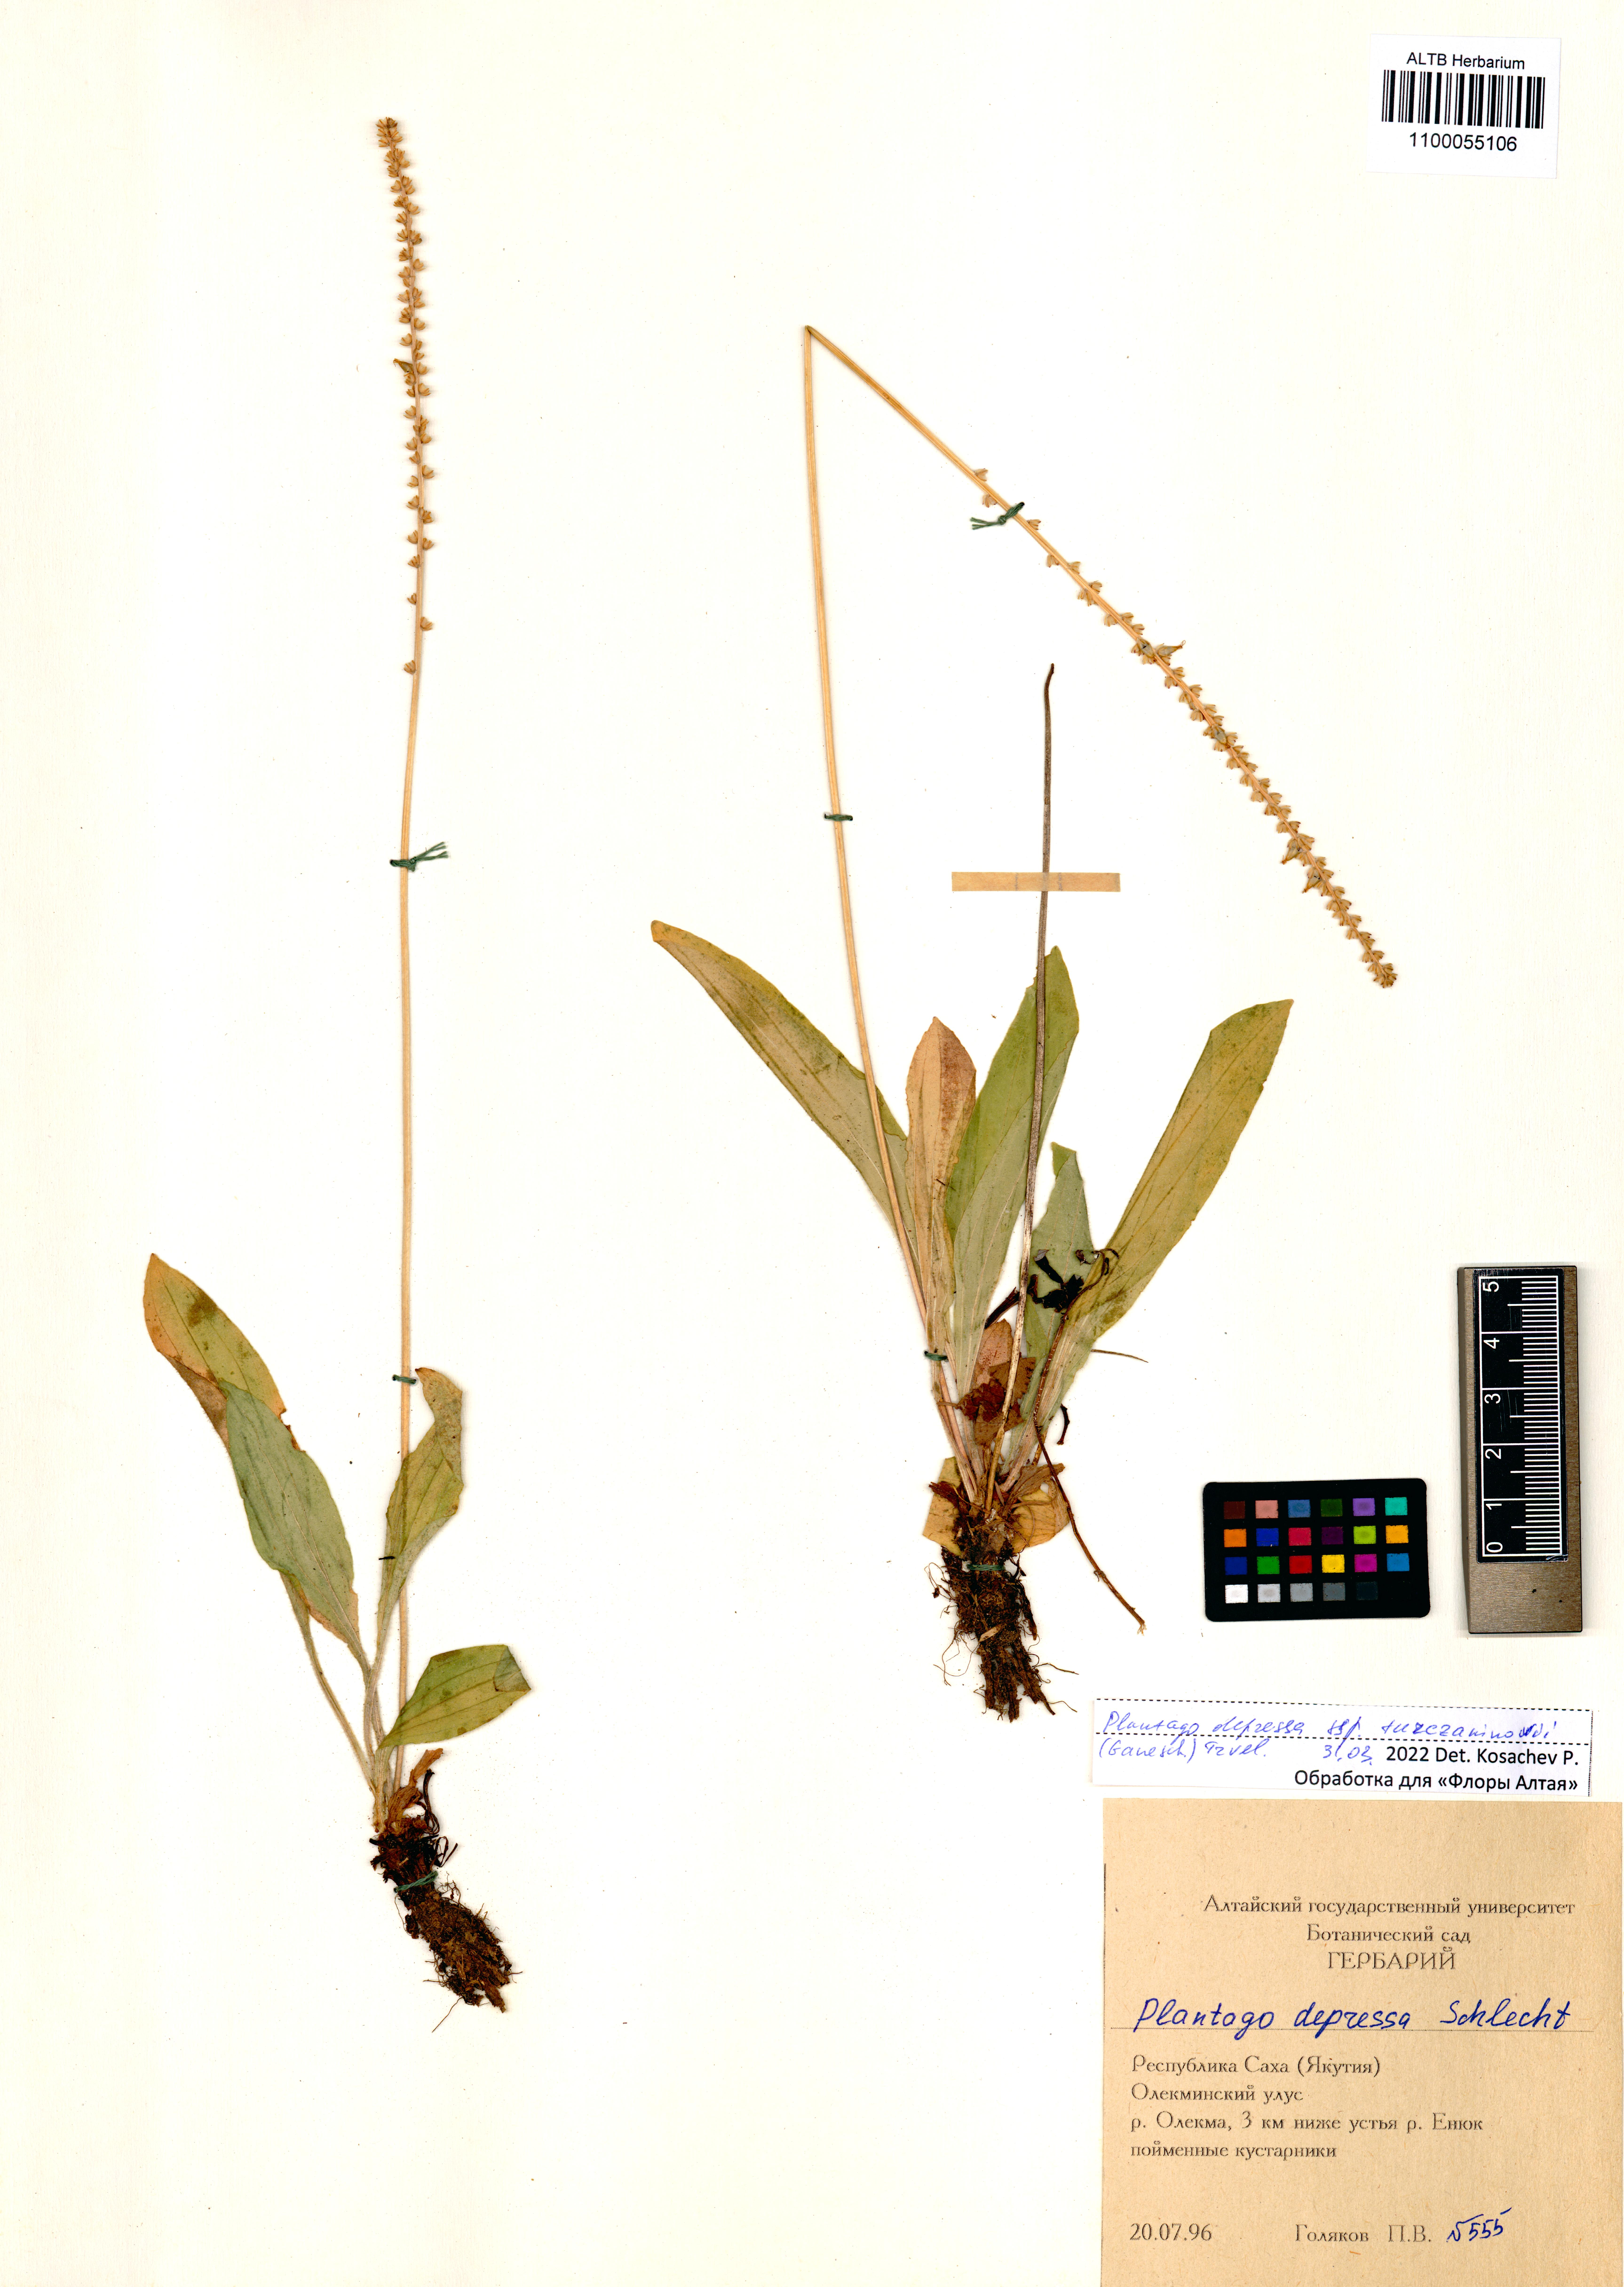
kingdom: Plantae
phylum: Tracheophyta
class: Magnoliopsida
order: Lamiales
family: Plantaginaceae
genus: Plantago
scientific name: Plantago depressa
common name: Depressed plantain
